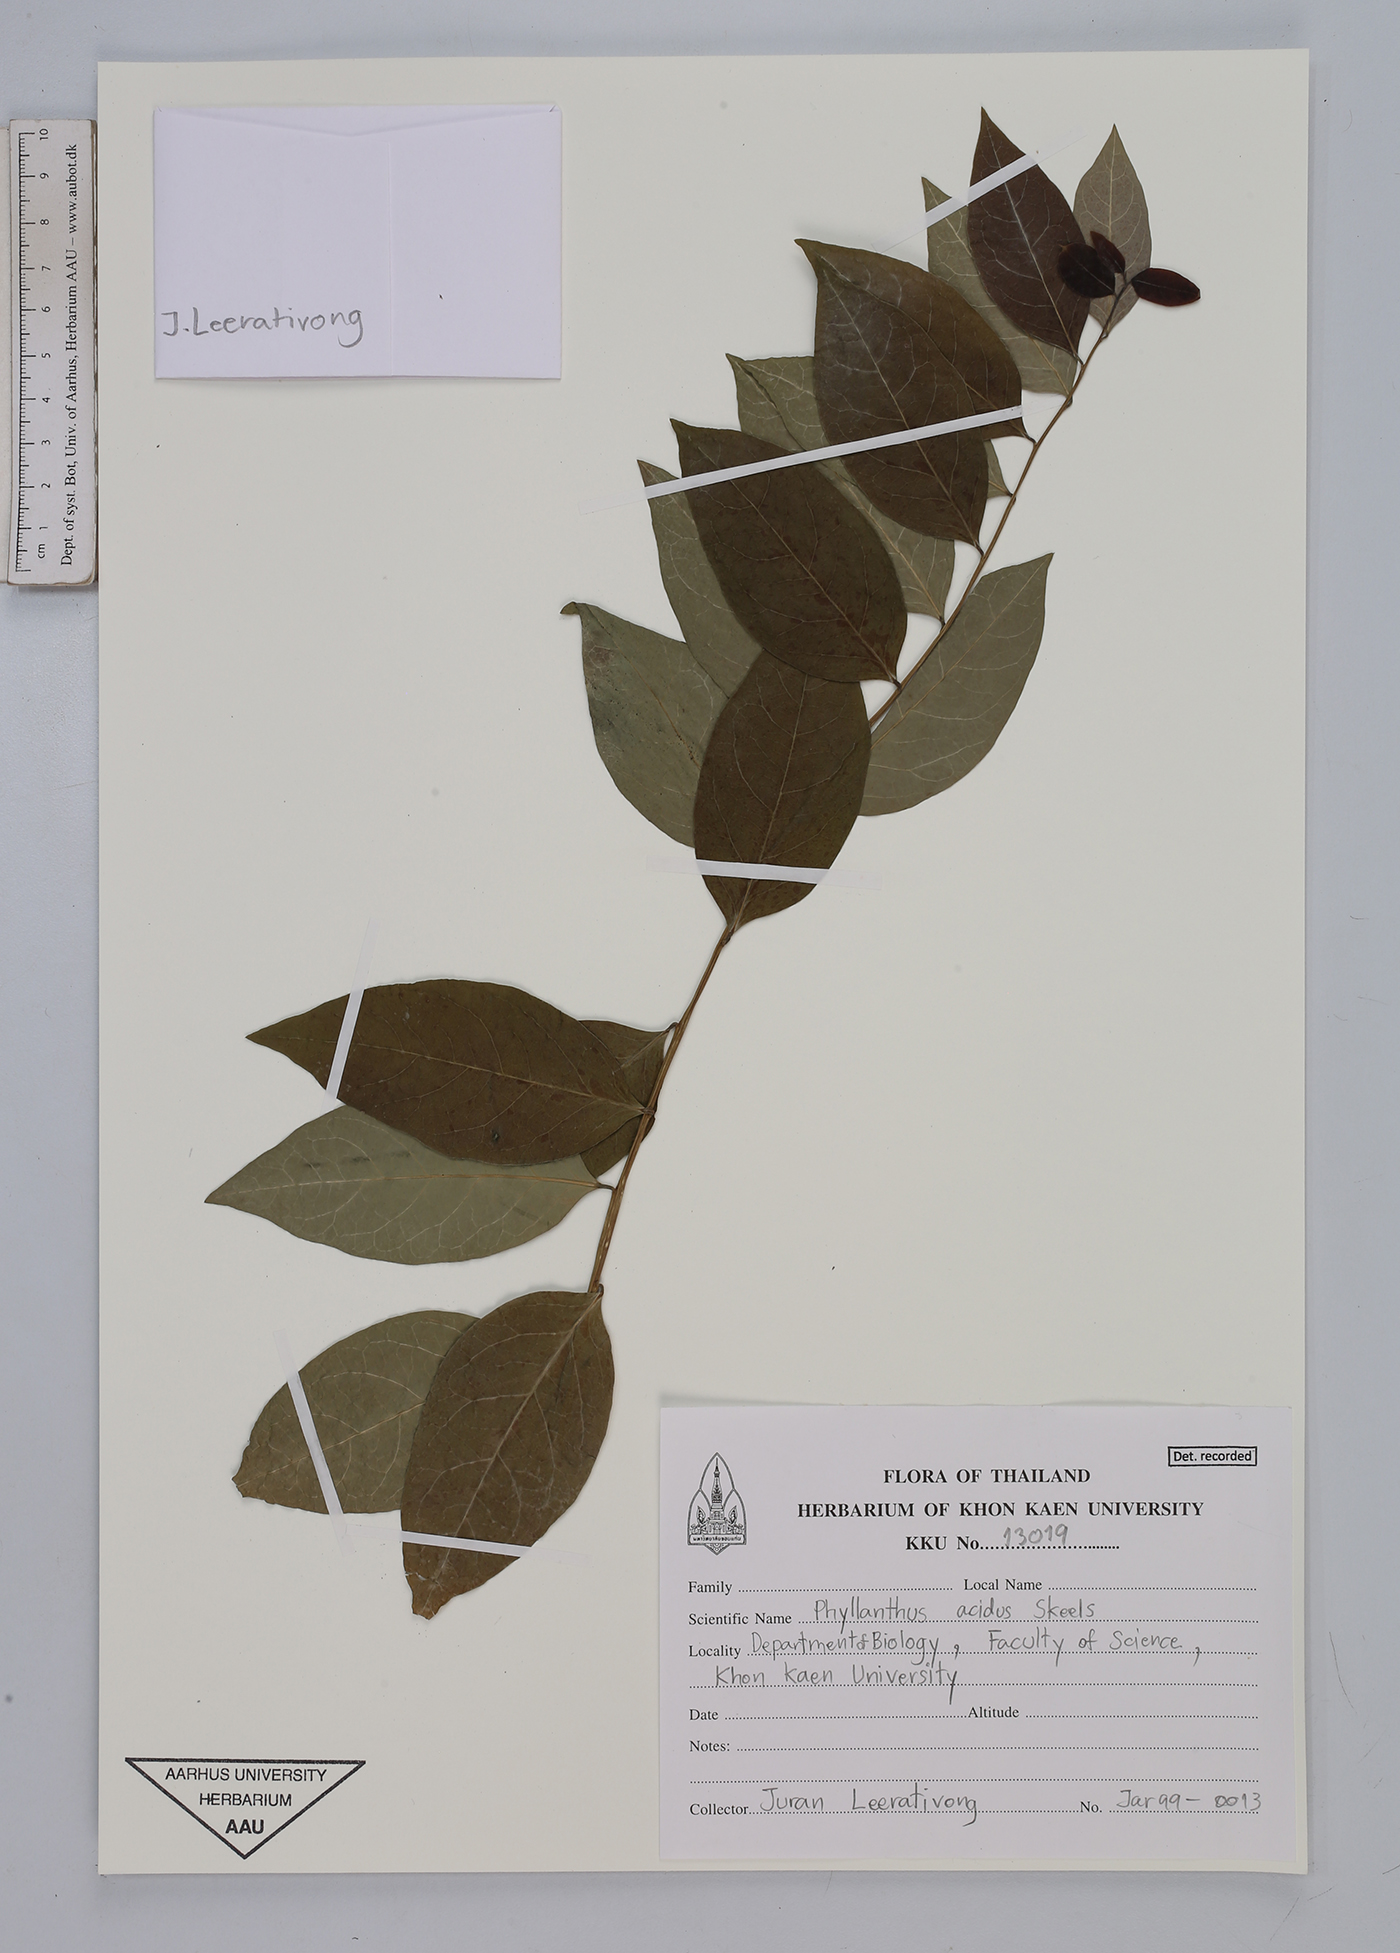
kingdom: Plantae
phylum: Tracheophyta
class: Magnoliopsida
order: Malpighiales
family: Phyllanthaceae
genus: Phyllanthus
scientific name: Phyllanthus acidus
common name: Tahitian gooseberry tree
